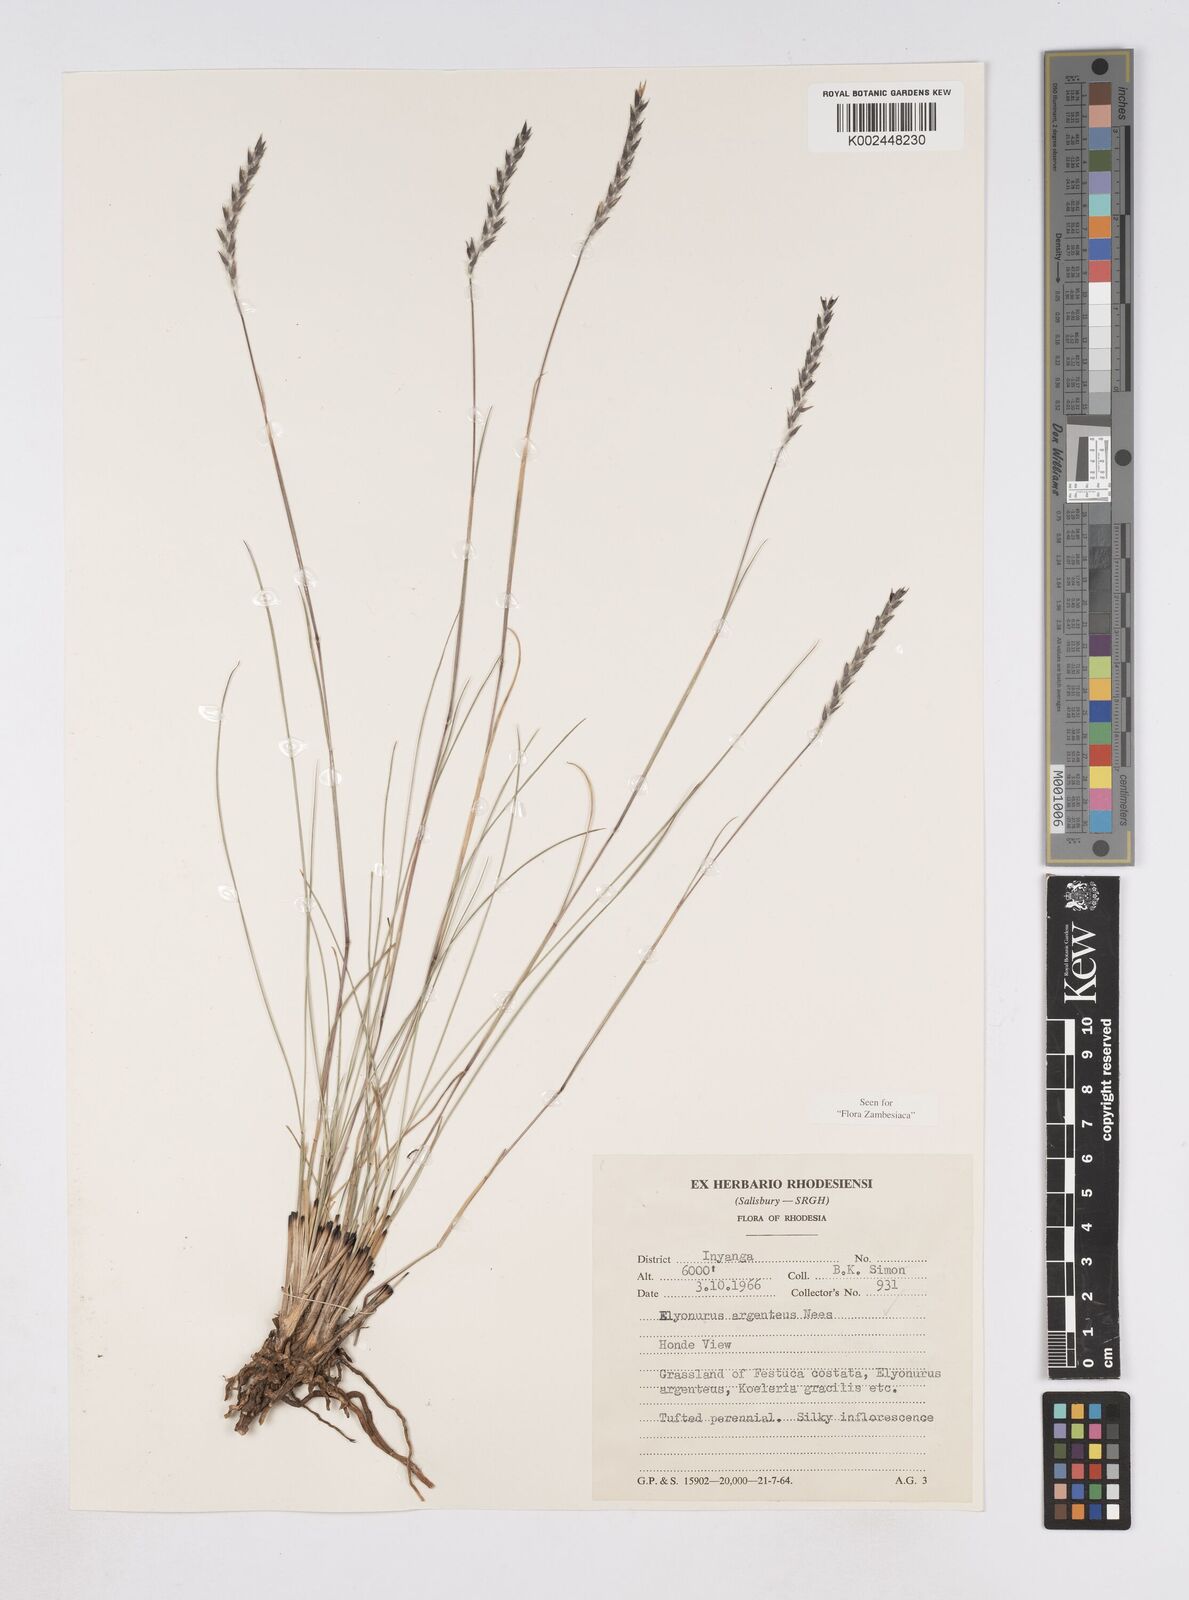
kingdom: Plantae
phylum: Tracheophyta
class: Liliopsida
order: Poales
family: Poaceae
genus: Elionurus
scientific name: Elionurus muticus
